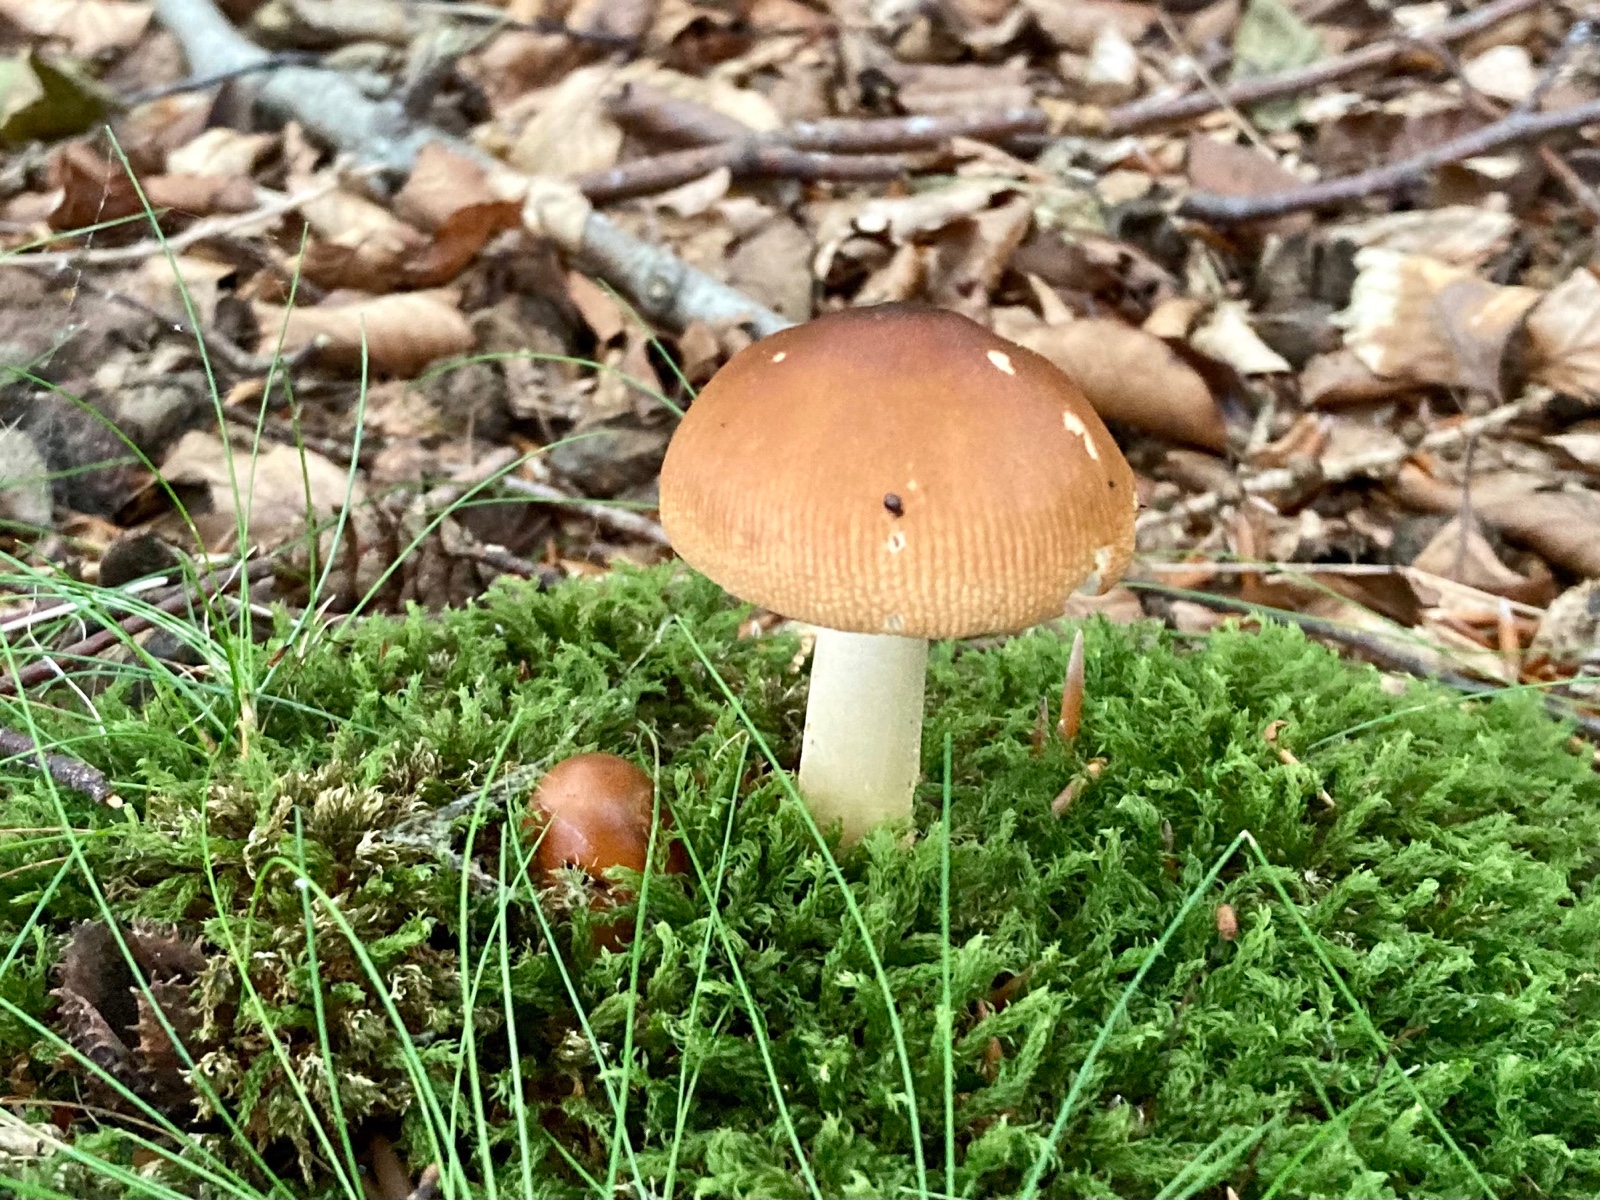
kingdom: Fungi
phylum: Basidiomycota
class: Agaricomycetes
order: Agaricales
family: Amanitaceae
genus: Amanita
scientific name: Amanita fulva
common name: brun kam-fluesvamp
